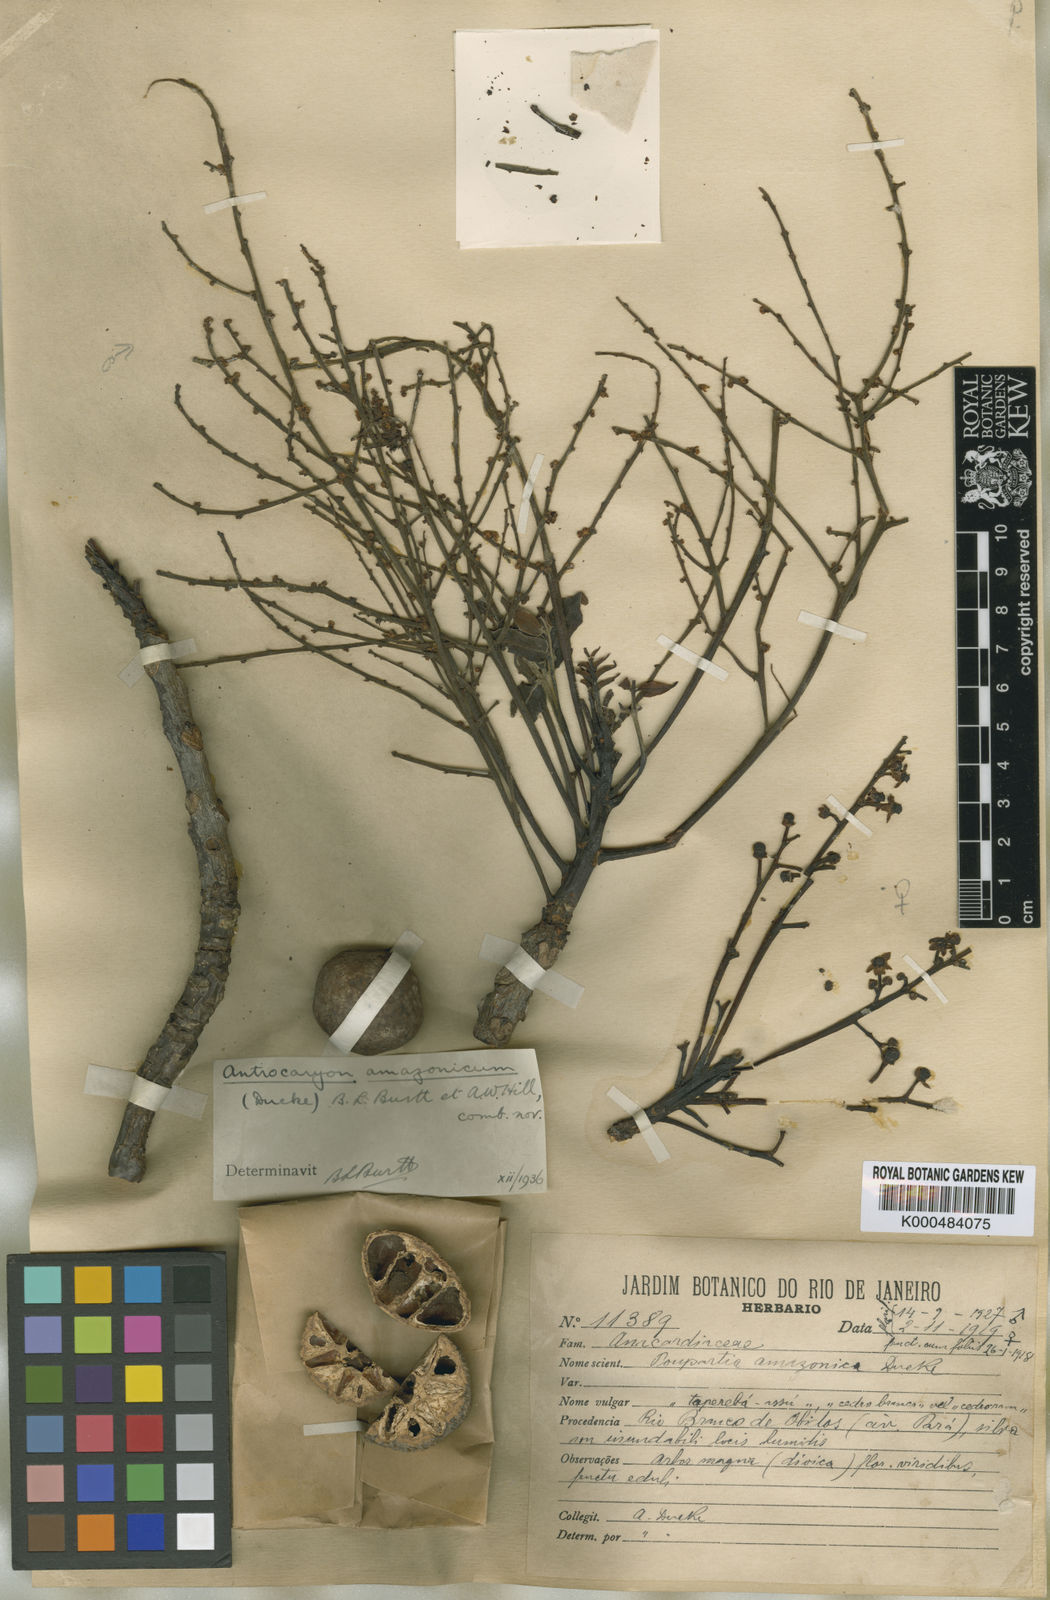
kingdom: Plantae
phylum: Tracheophyta
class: Magnoliopsida
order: Sapindales
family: Anacardiaceae
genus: Antrocaryon
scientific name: Antrocaryon amazonicum
